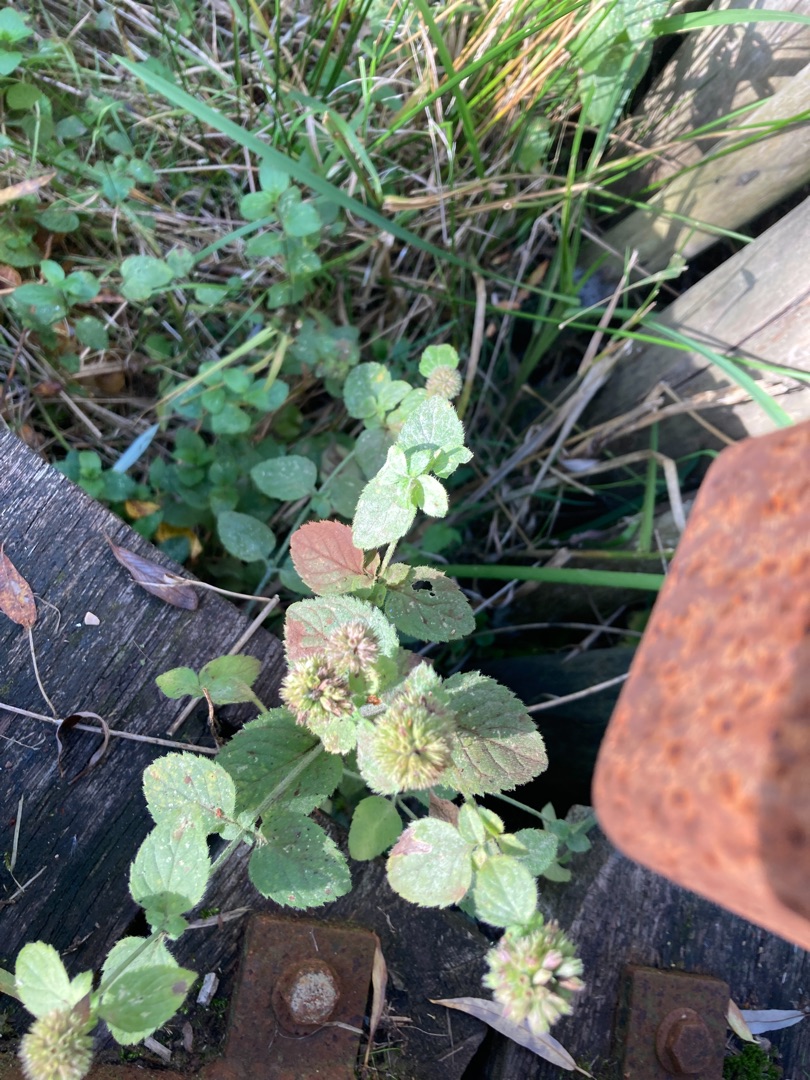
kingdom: Plantae
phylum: Tracheophyta
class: Magnoliopsida
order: Lamiales
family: Lamiaceae
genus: Mentha
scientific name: Mentha aquatica
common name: Vand-mynte
